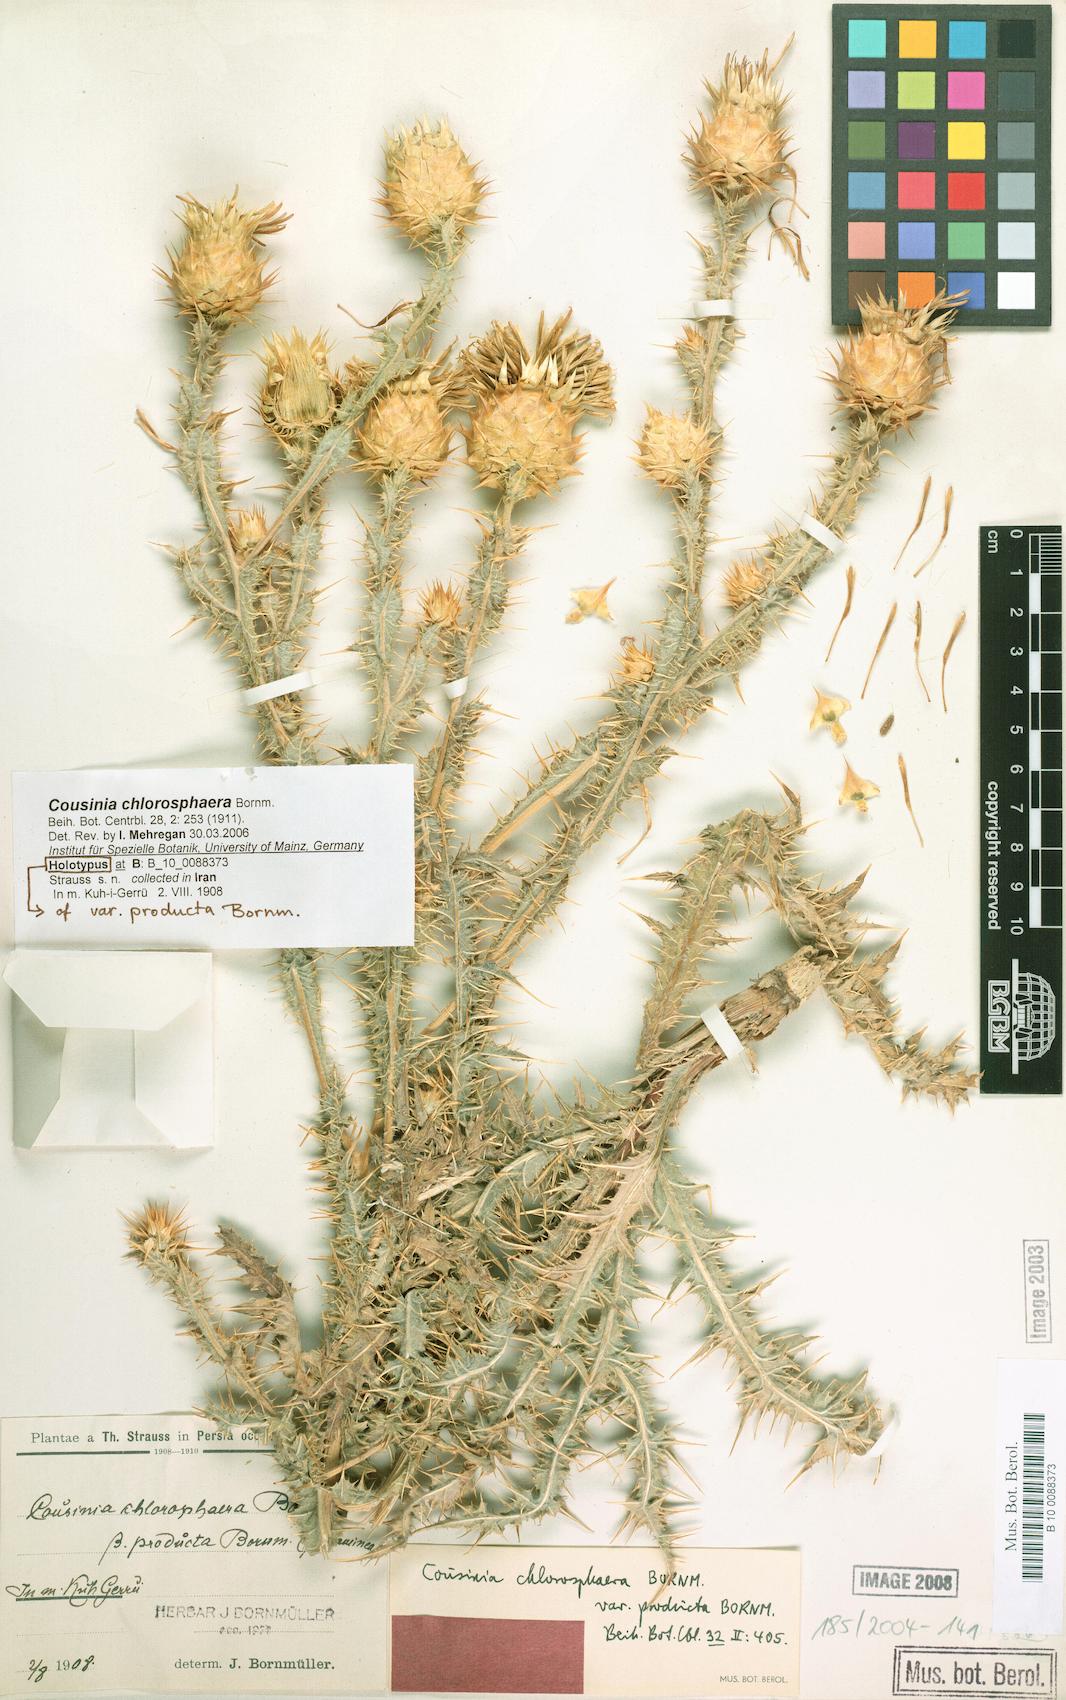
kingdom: Plantae
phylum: Tracheophyta
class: Magnoliopsida
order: Asterales
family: Asteraceae
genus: Cousinia
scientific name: Cousinia chlorosphaera
